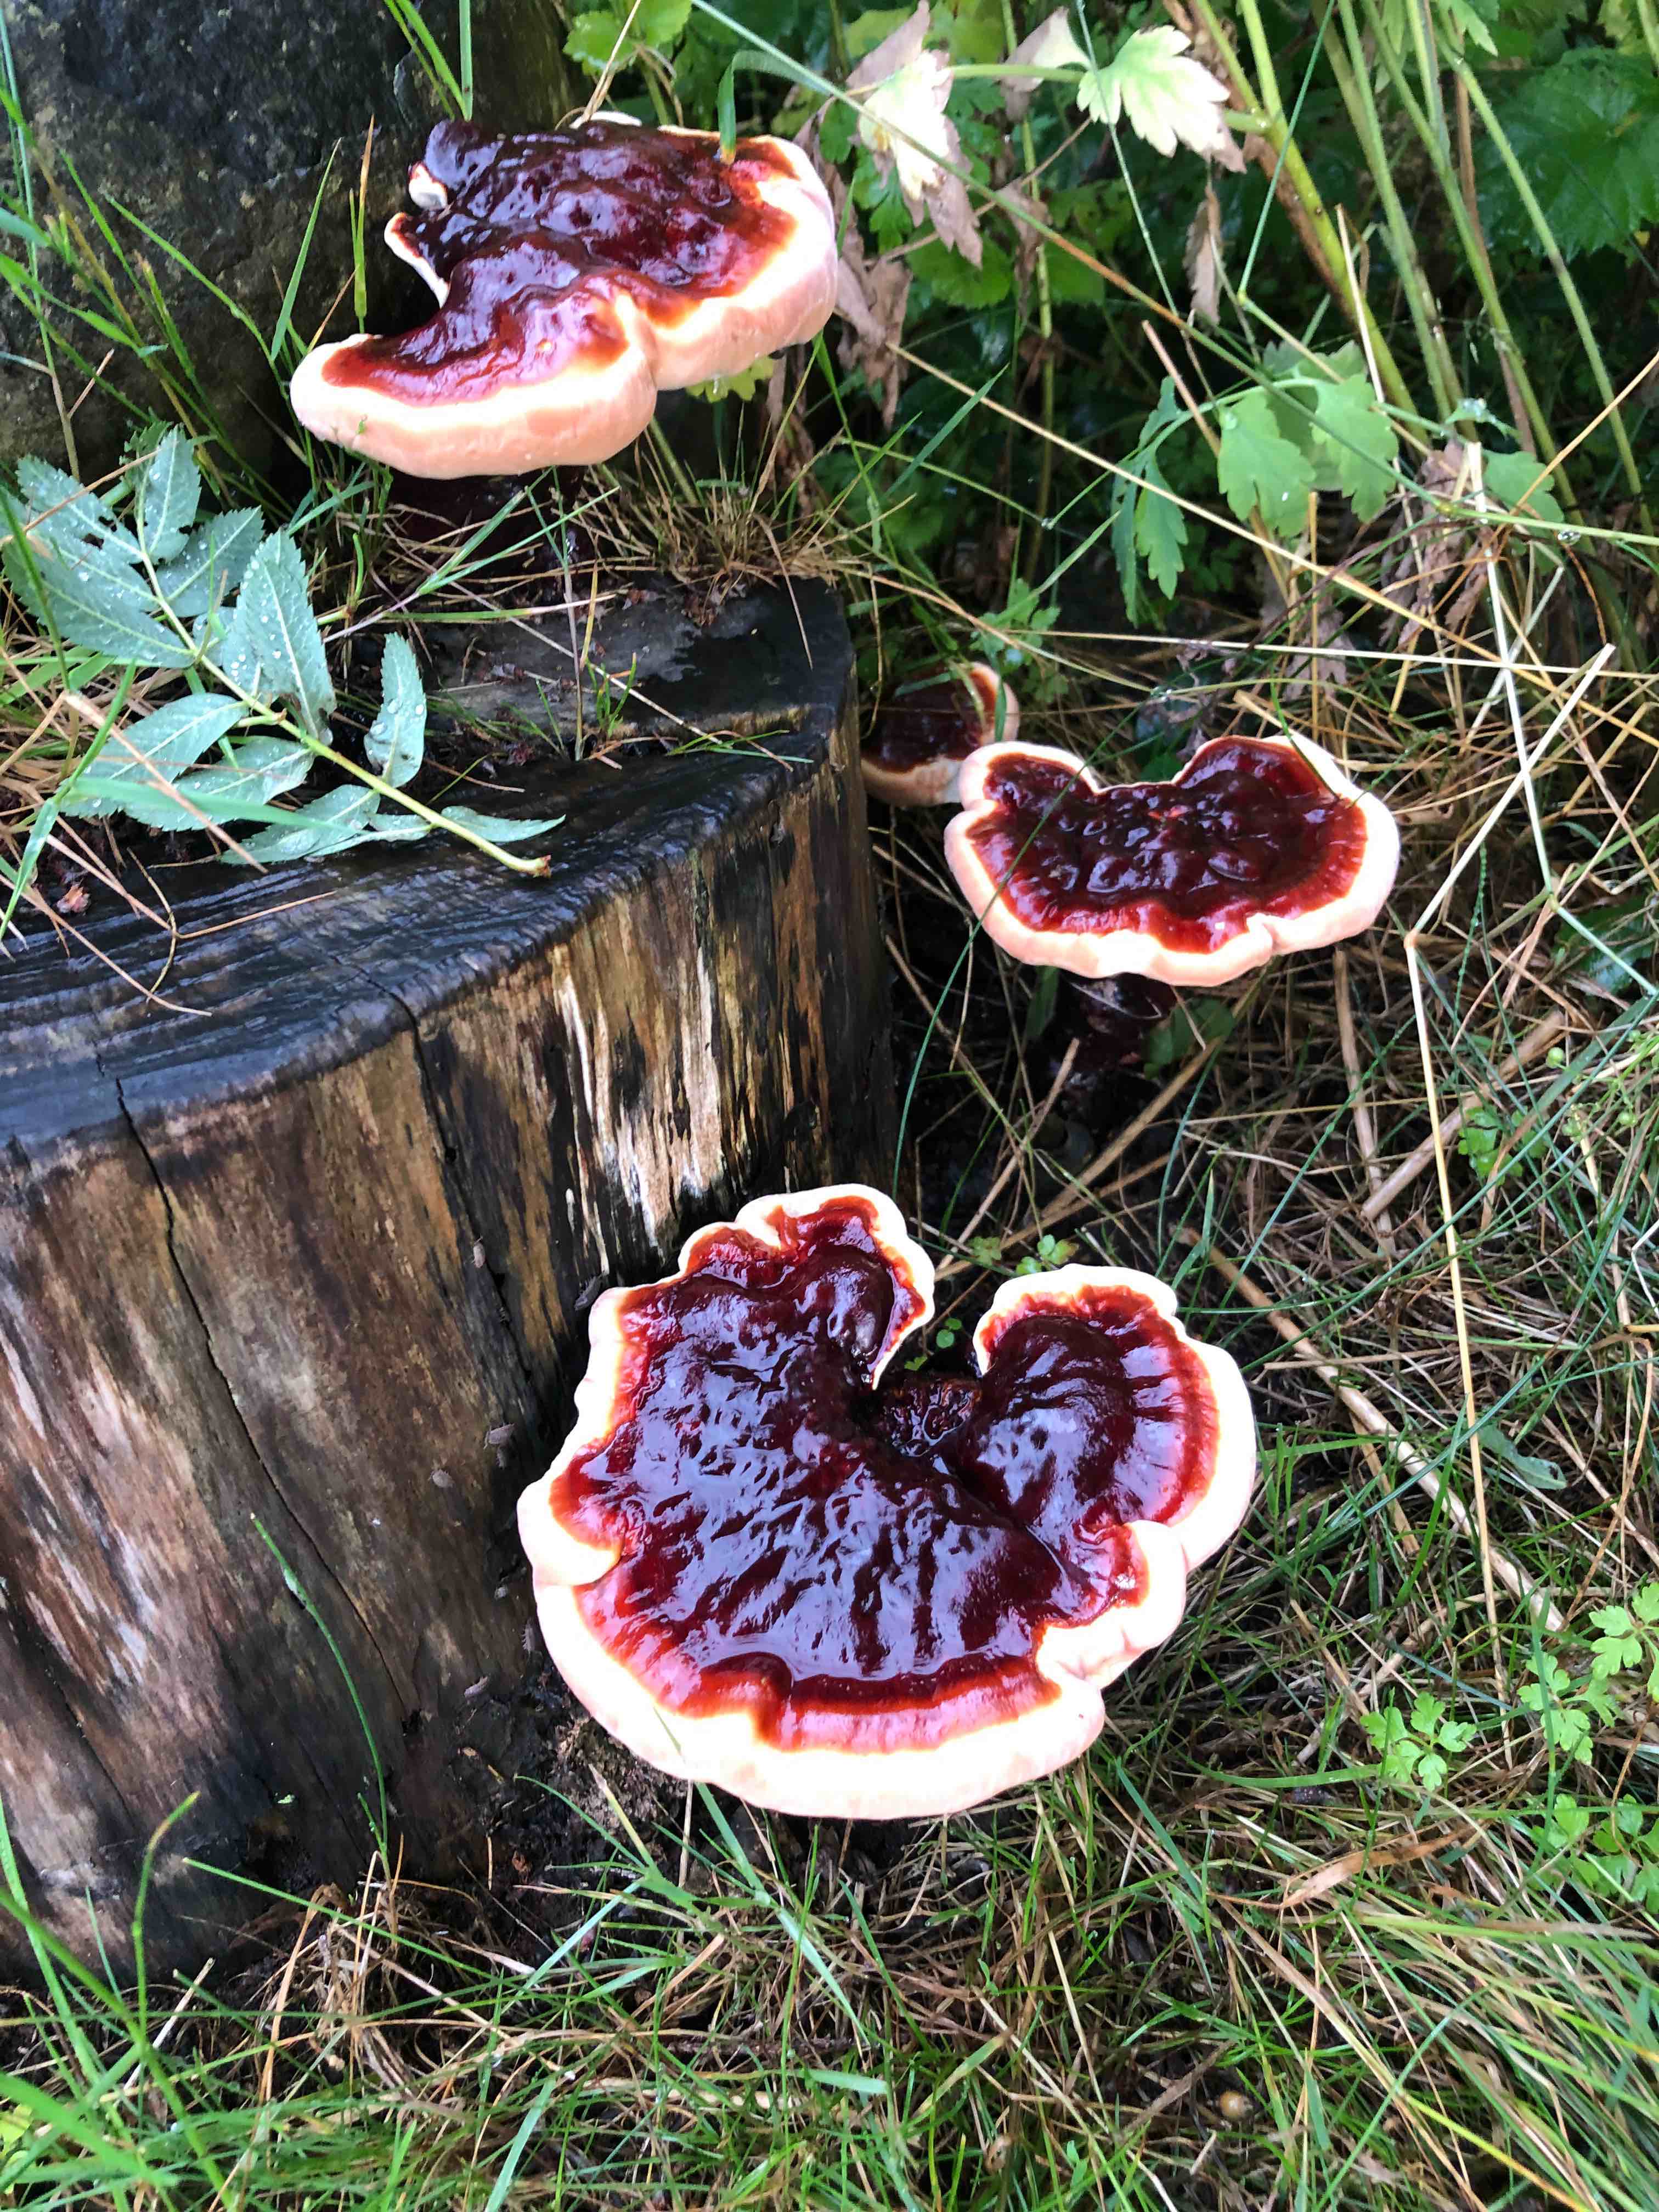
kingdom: Fungi
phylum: Basidiomycota
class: Agaricomycetes
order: Polyporales
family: Polyporaceae
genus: Ganoderma
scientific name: Ganoderma lucidum
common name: skinnende lakporesvamp
